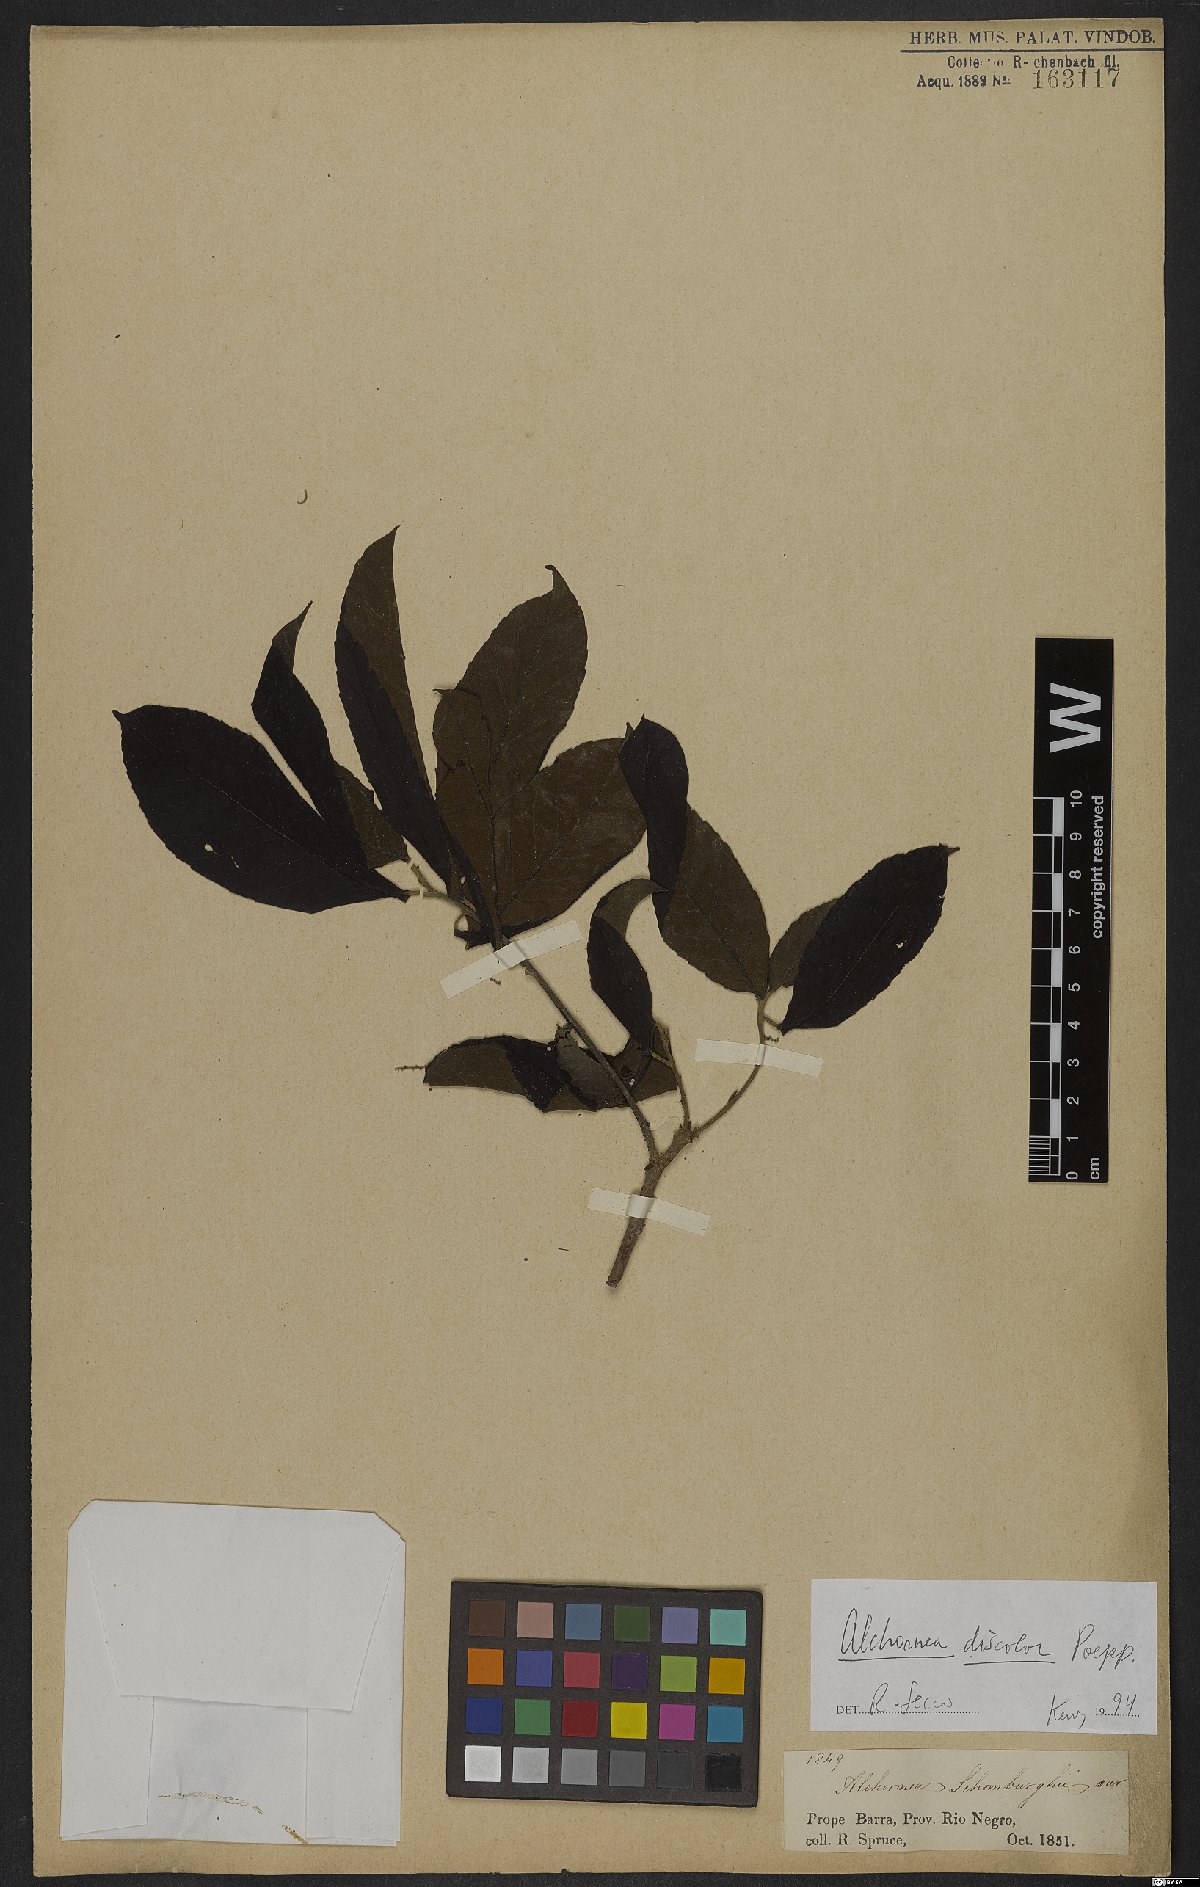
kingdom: Plantae
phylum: Tracheophyta
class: Magnoliopsida
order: Malpighiales
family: Euphorbiaceae
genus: Alchornea
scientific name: Alchornea discolor
